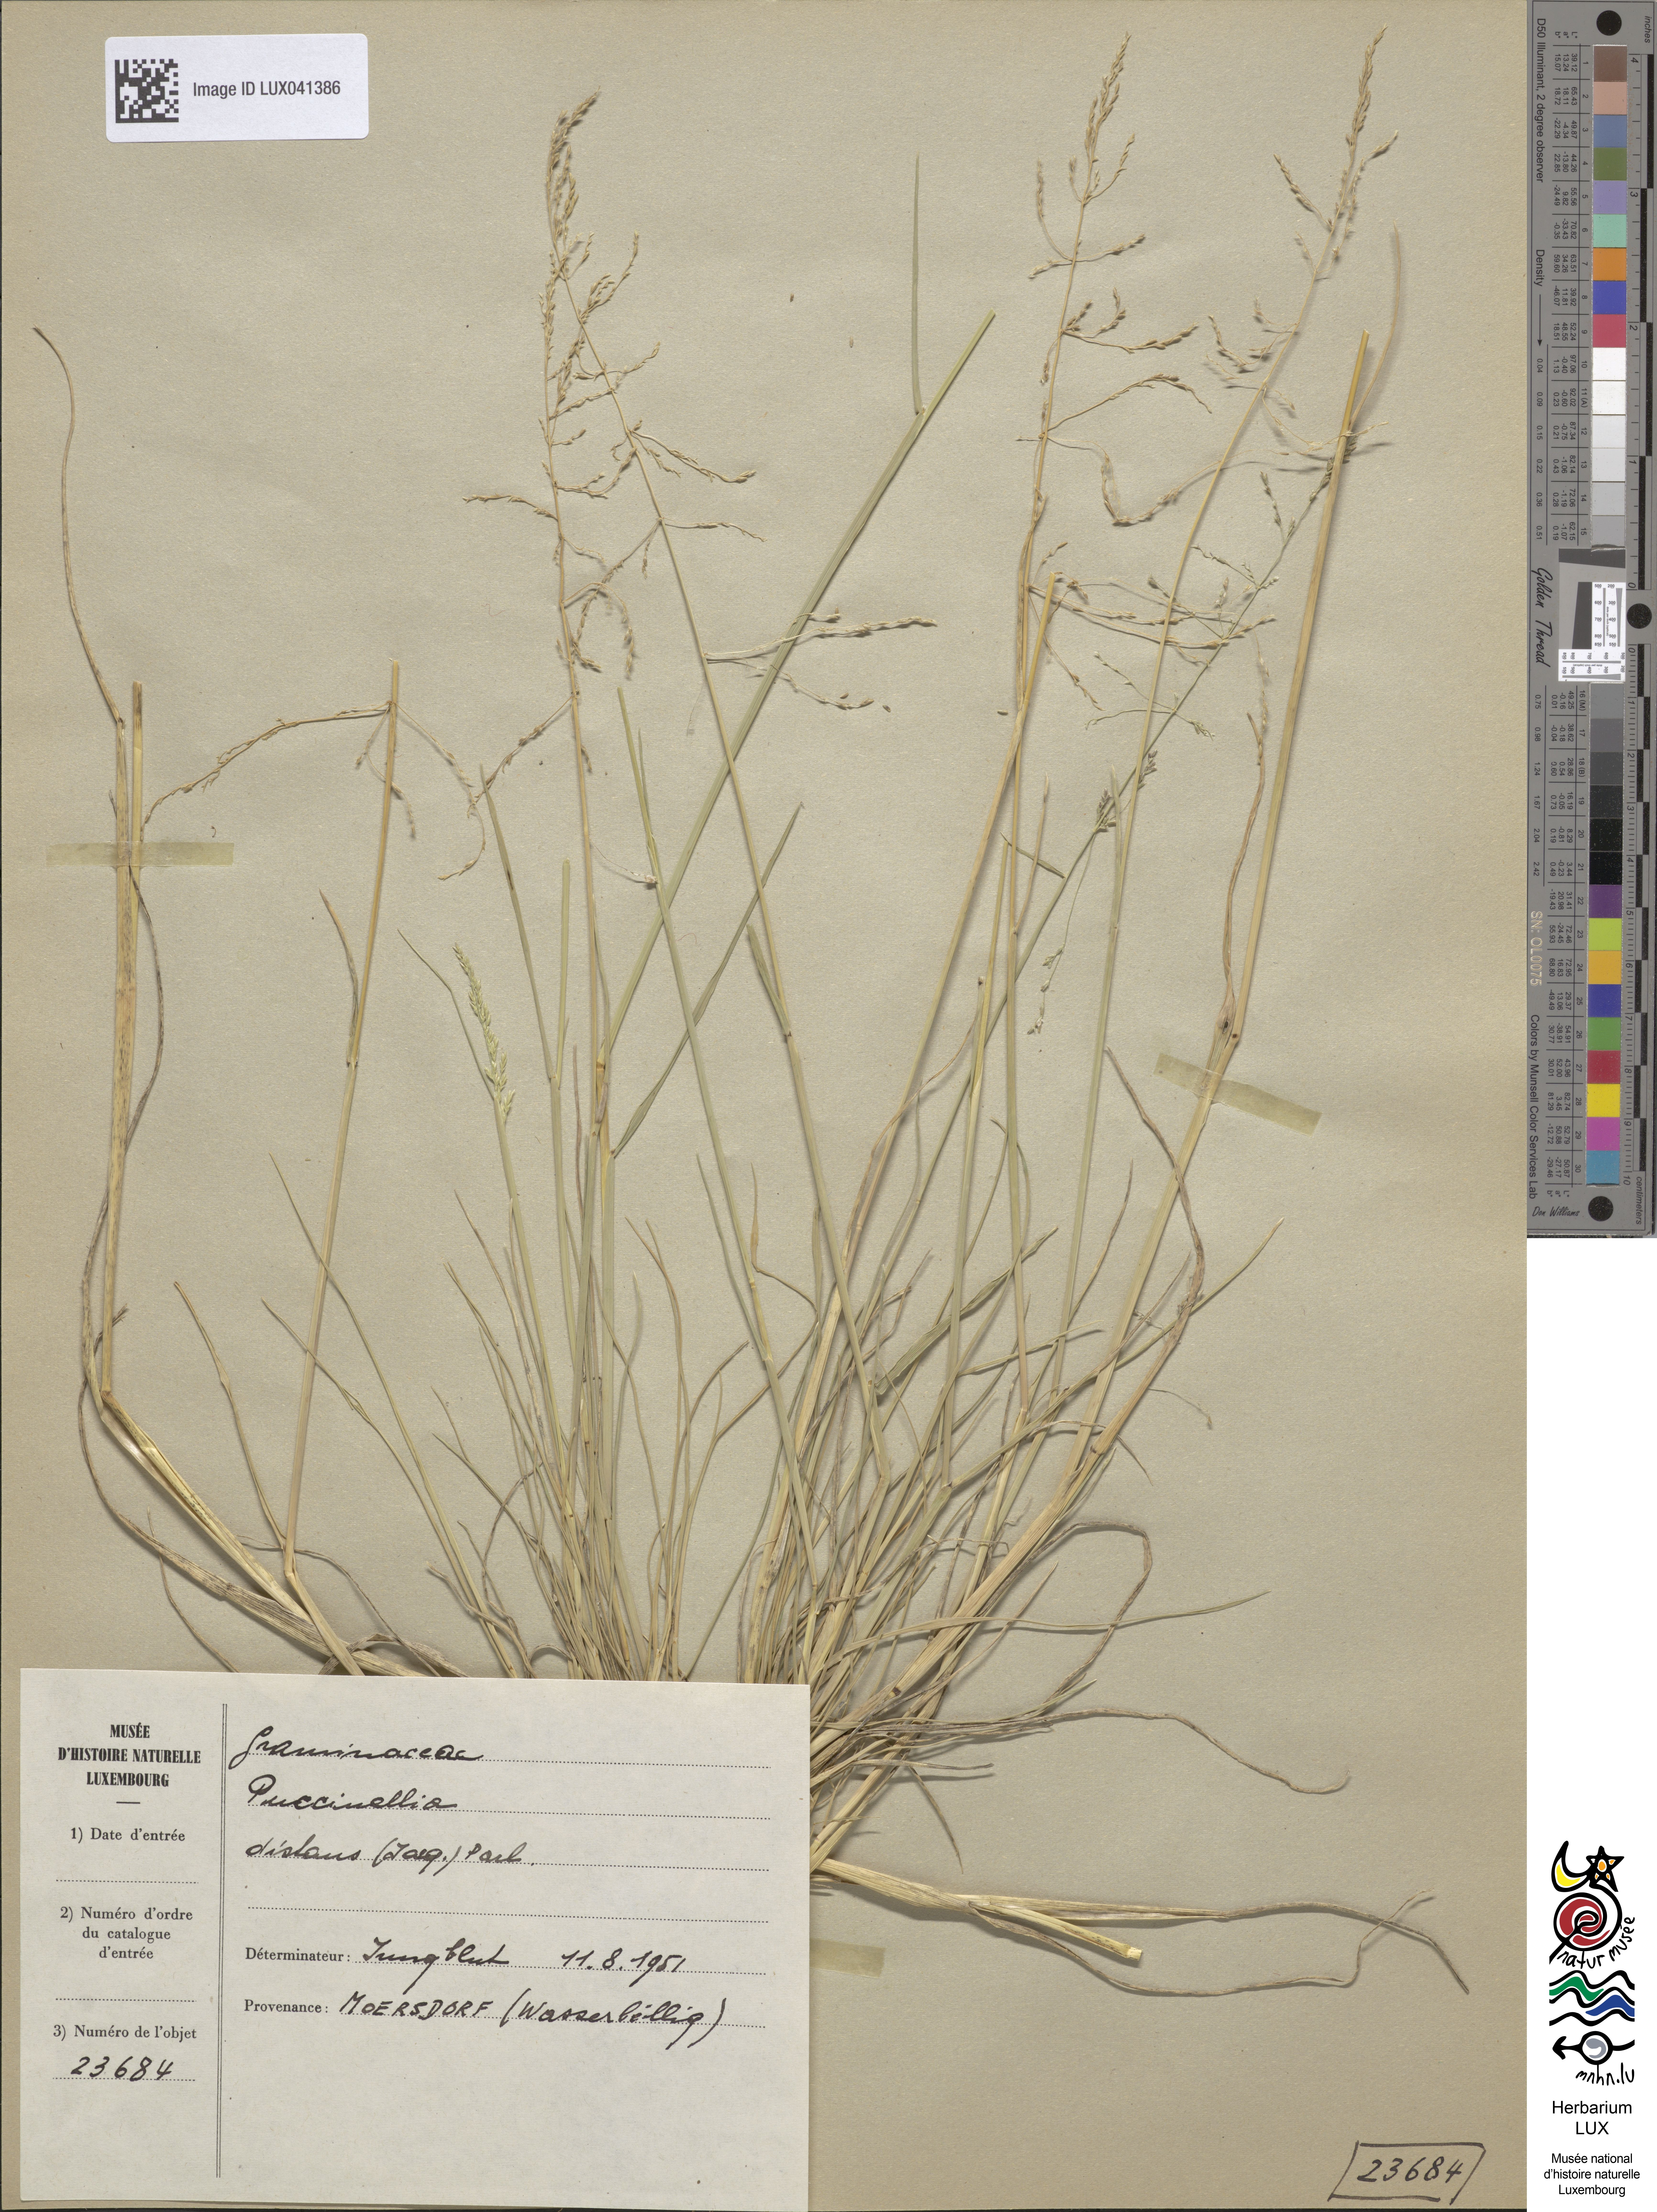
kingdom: Plantae
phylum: Tracheophyta
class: Liliopsida
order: Poales
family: Poaceae
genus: Puccinellia
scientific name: Puccinellia distans
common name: Weeping alkaligrass
